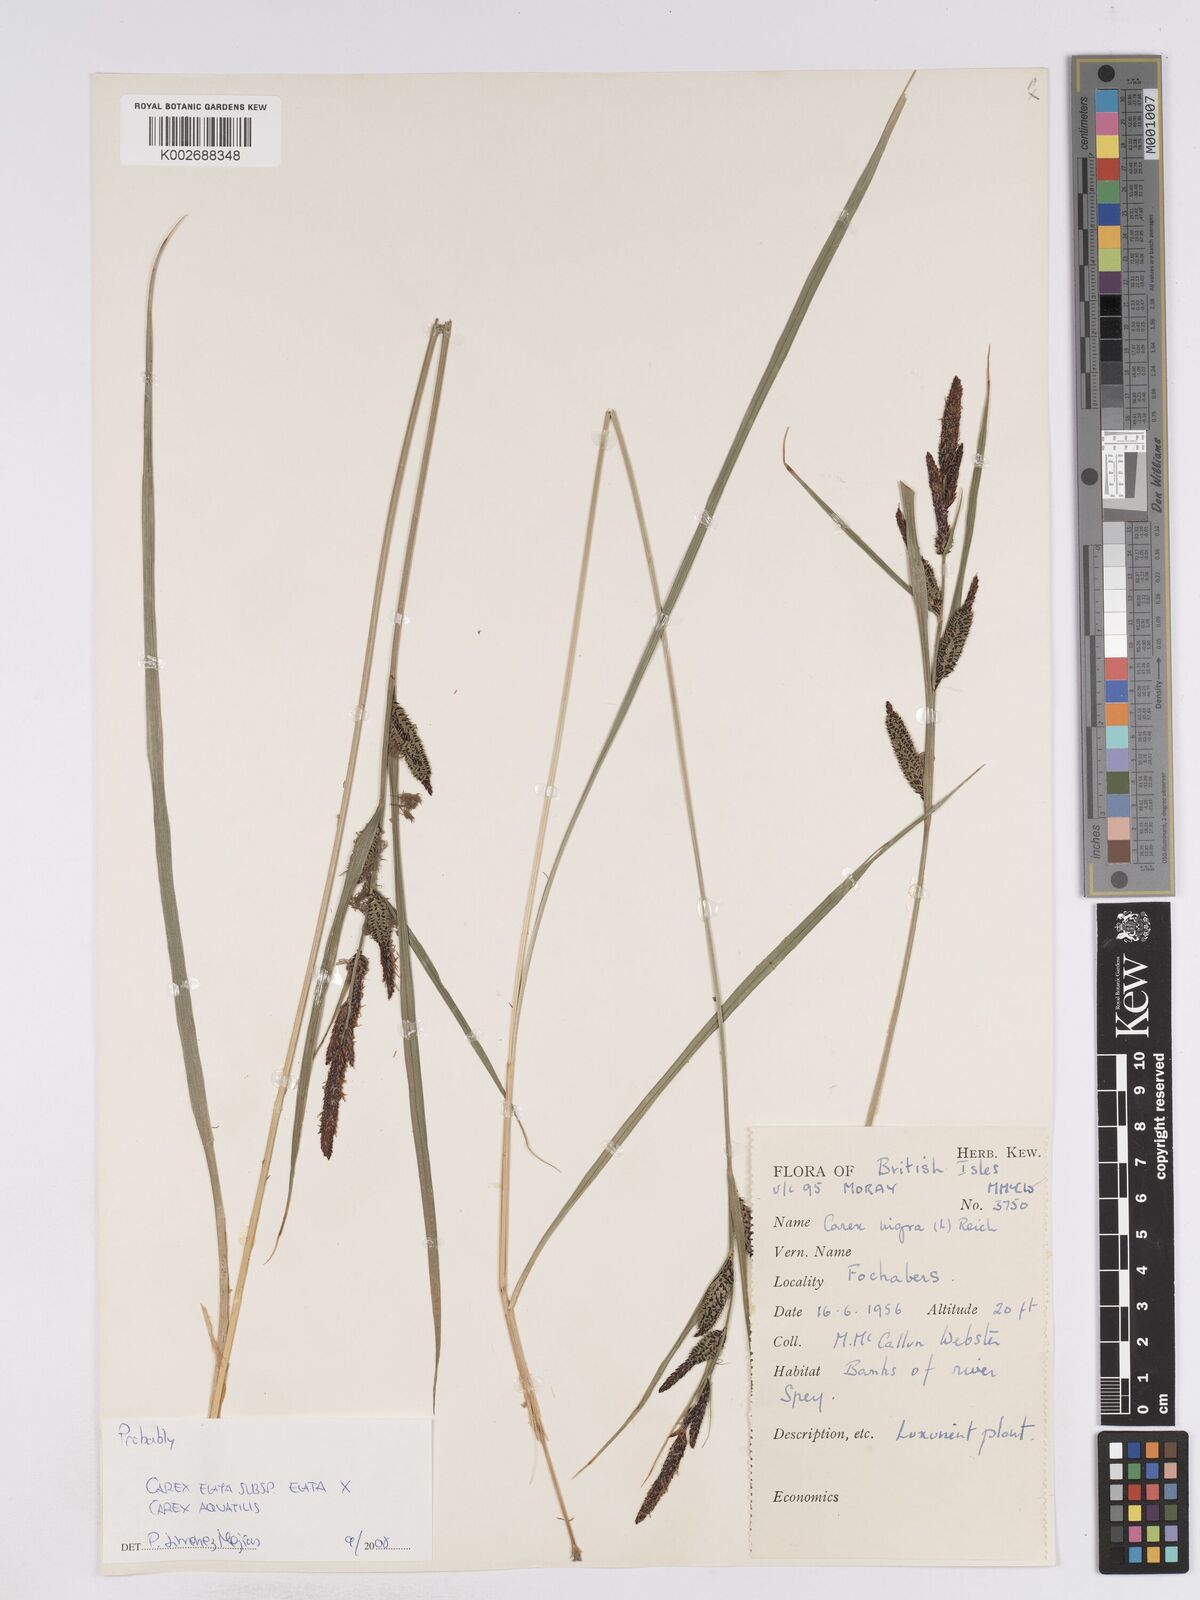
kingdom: Plantae
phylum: Tracheophyta
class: Liliopsida
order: Poales
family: Cyperaceae
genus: Carex
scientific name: Carex elata
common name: Tufted sedge
